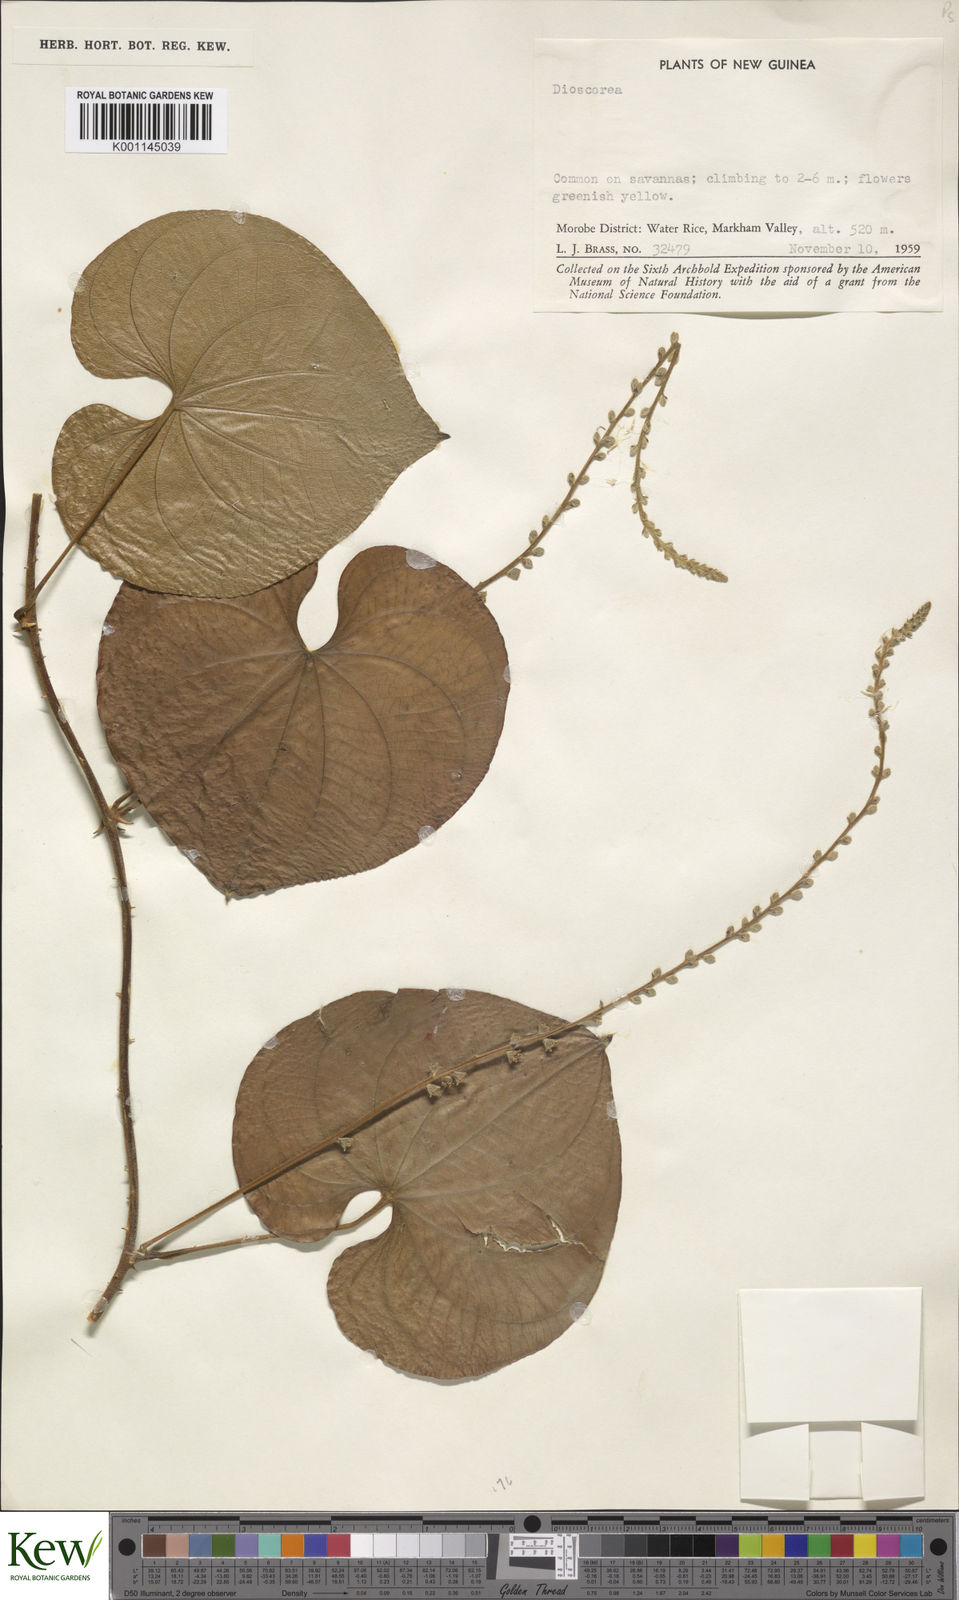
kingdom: Plantae
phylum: Tracheophyta
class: Liliopsida
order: Dioscoreales
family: Dioscoreaceae
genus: Dioscorea
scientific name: Dioscorea
